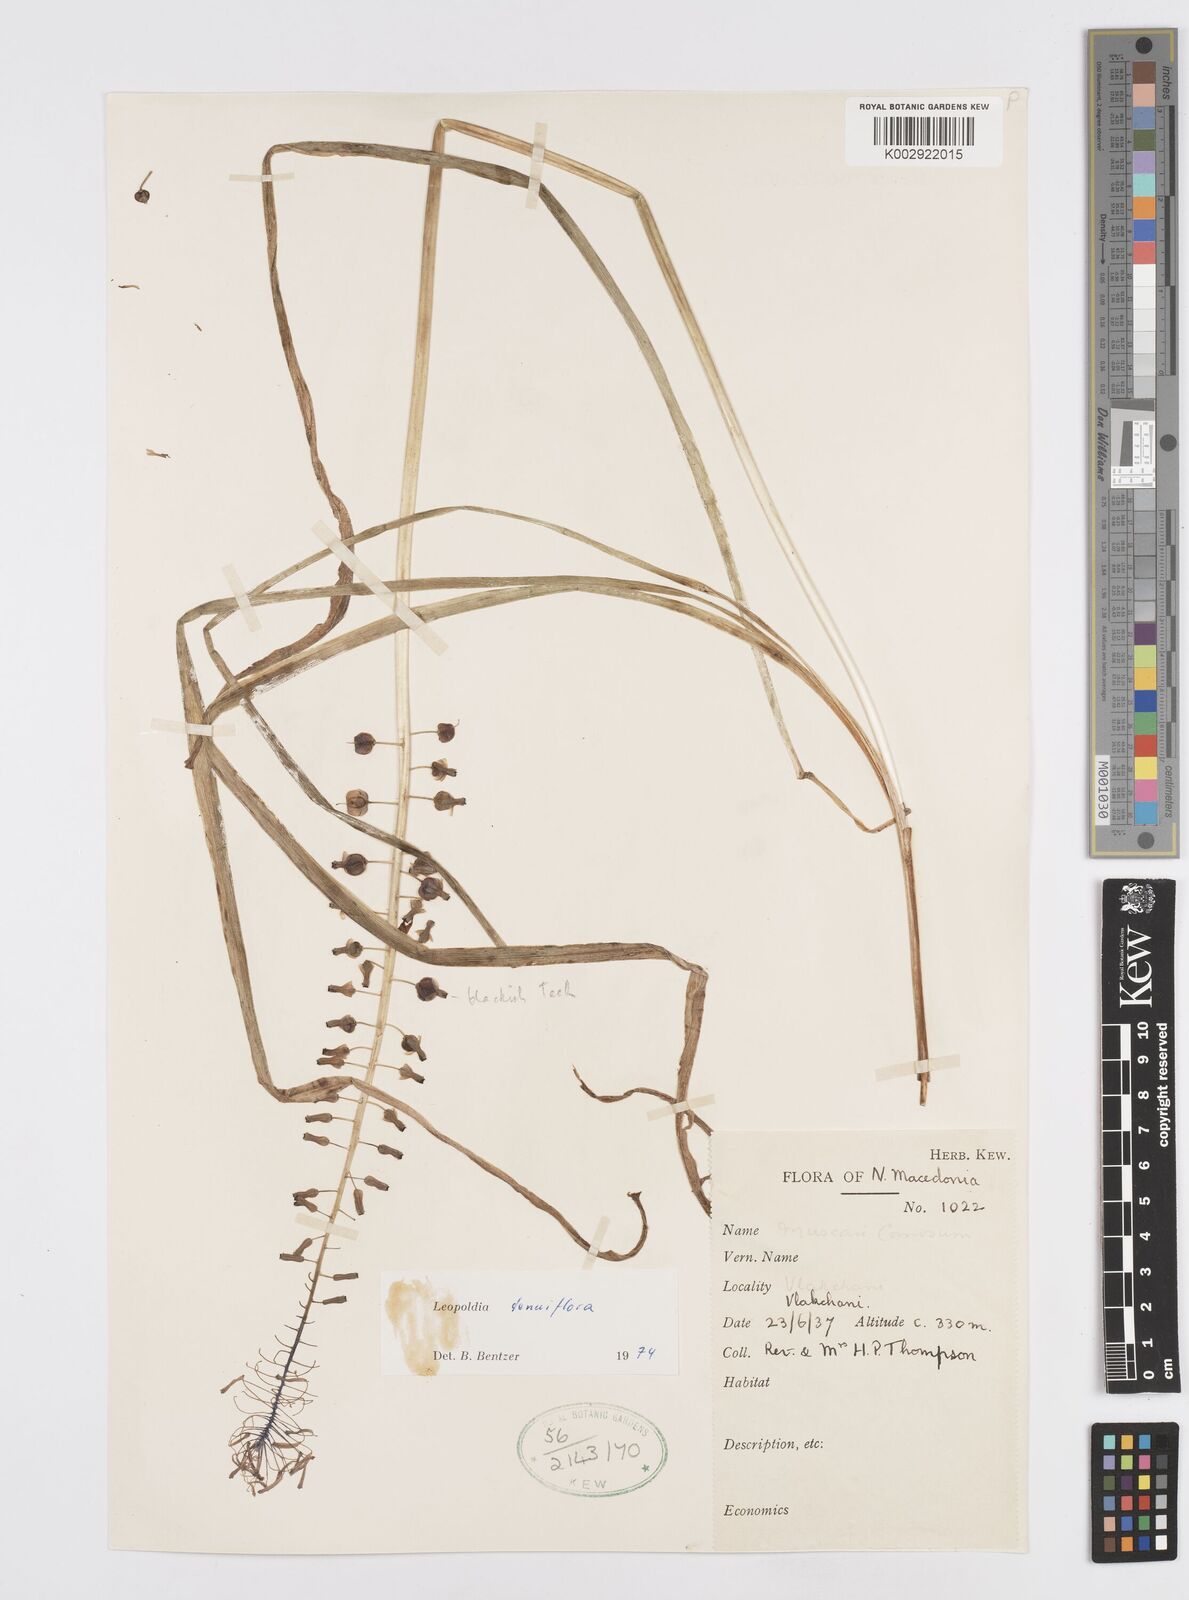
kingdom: Plantae
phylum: Tracheophyta
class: Liliopsida
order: Asparagales
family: Asparagaceae
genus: Muscari
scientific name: Muscari tenuiflorum
